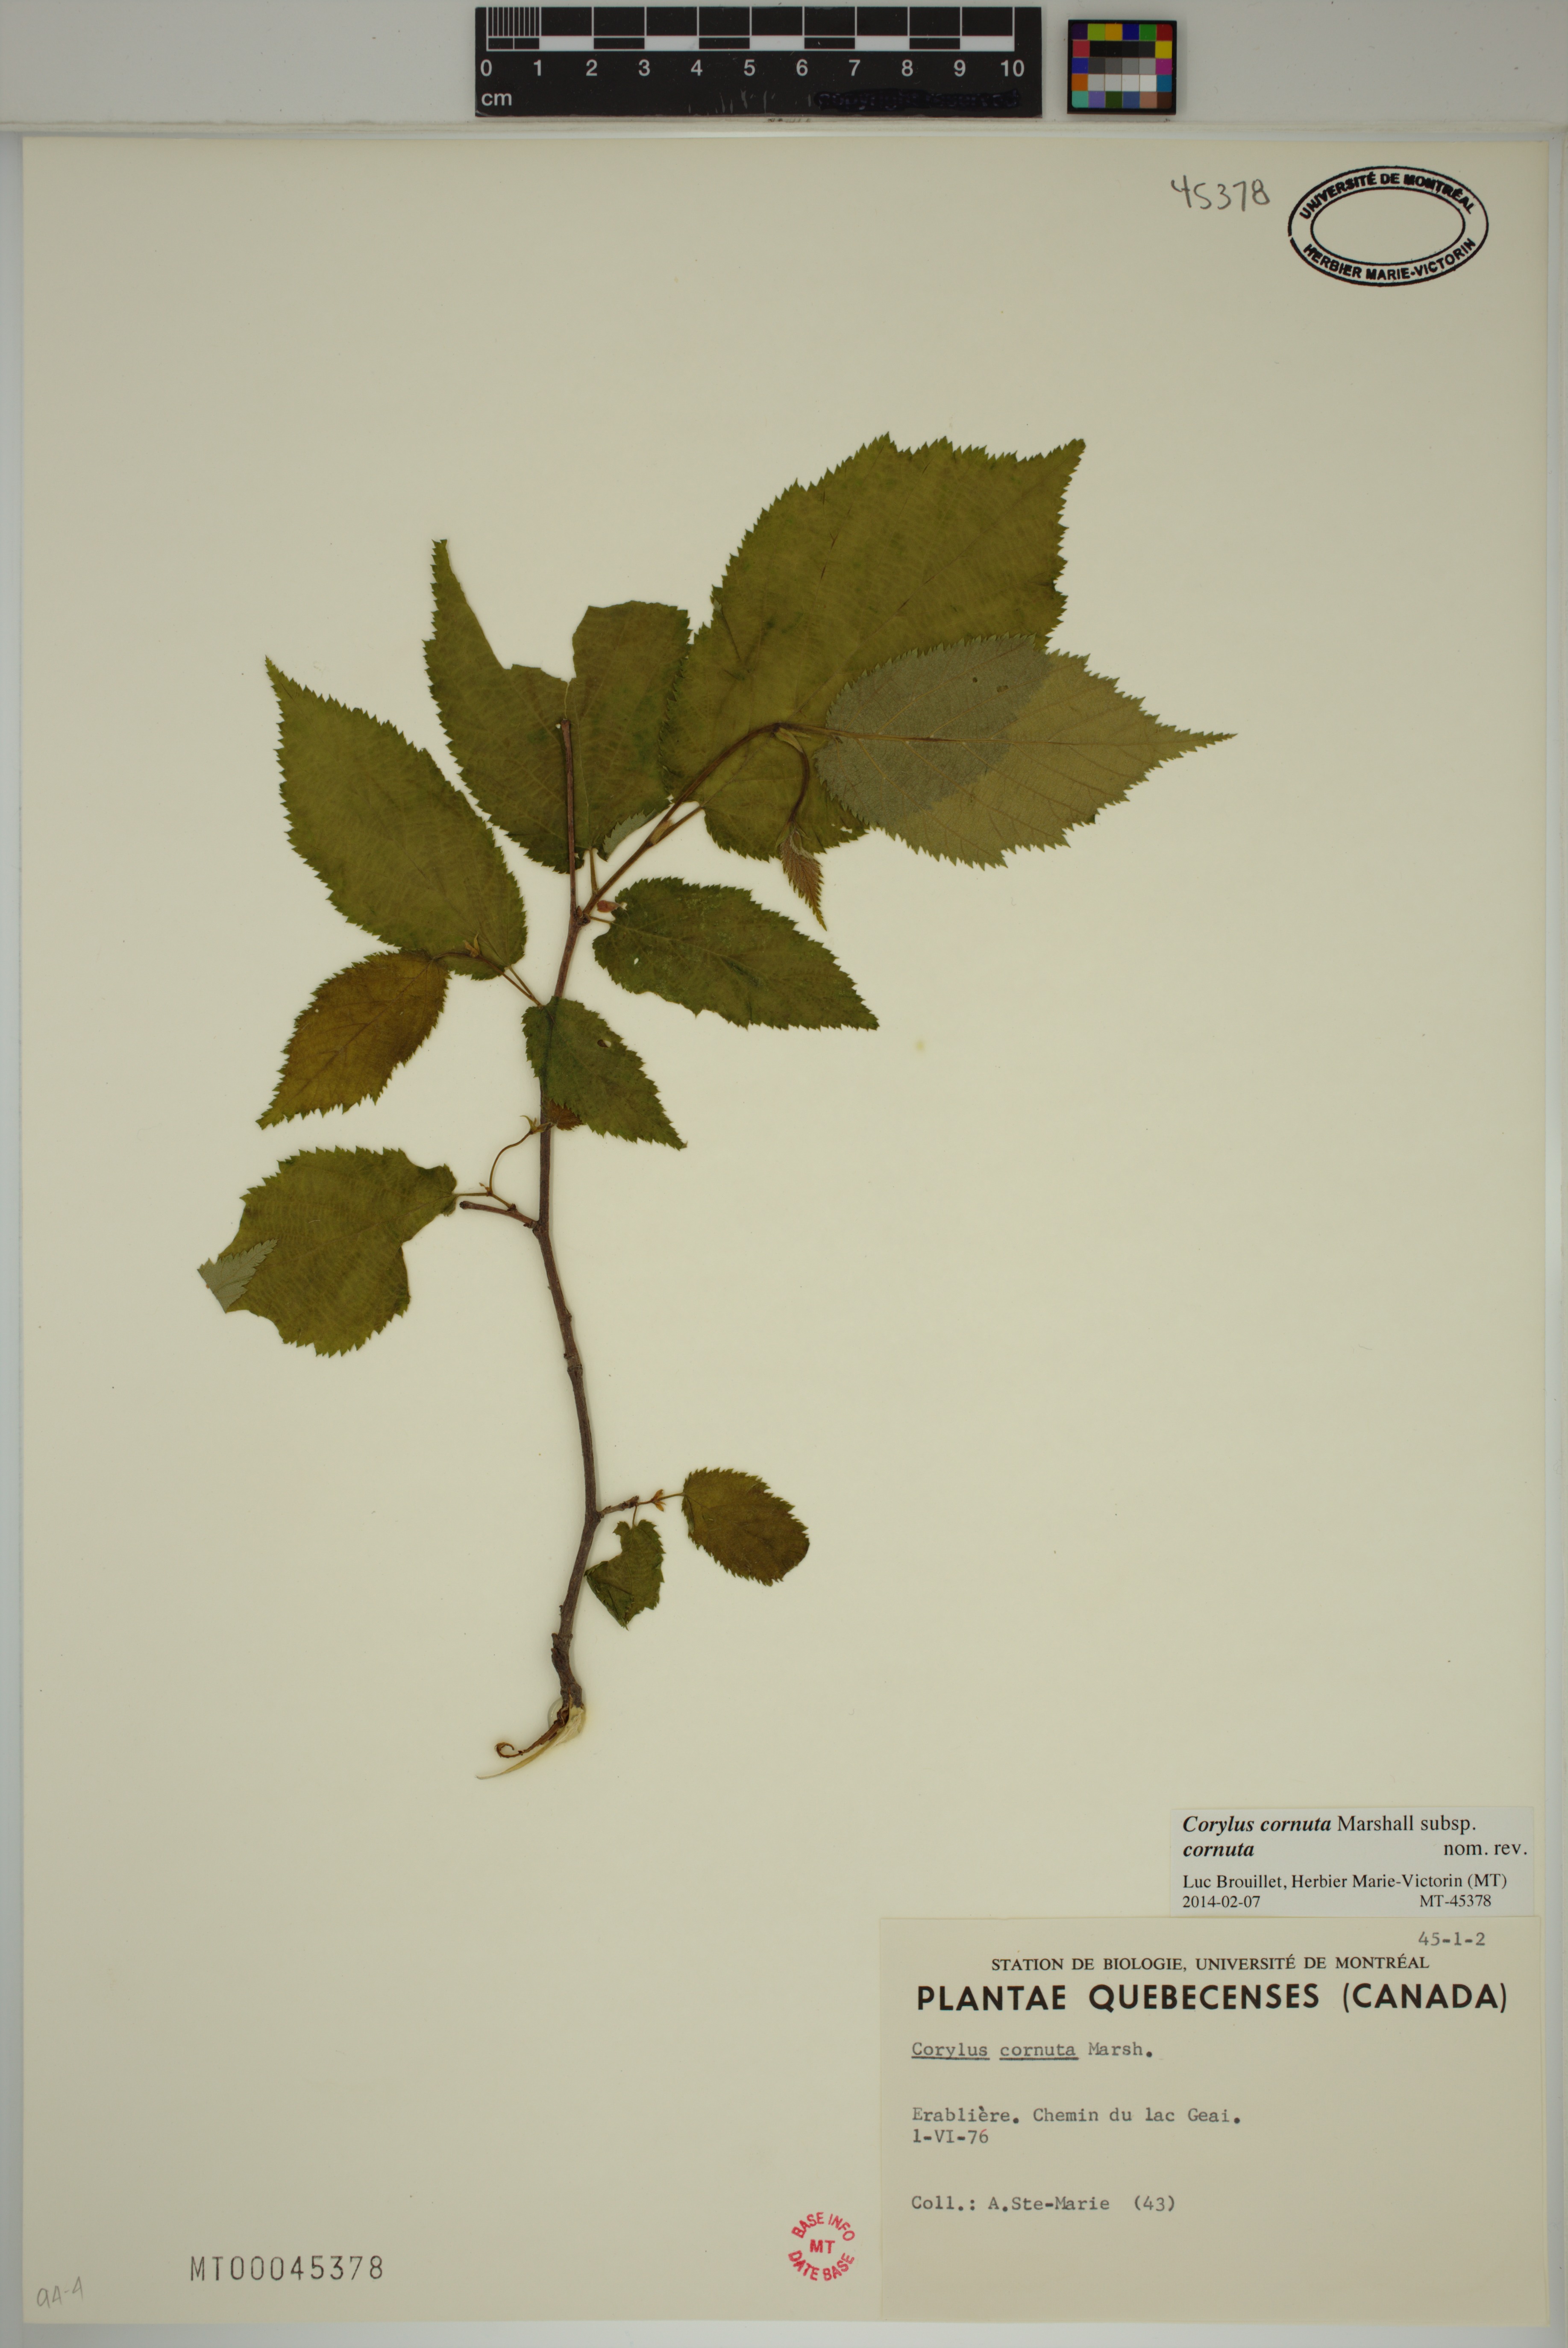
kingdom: Plantae
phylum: Tracheophyta
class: Magnoliopsida
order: Fagales
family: Betulaceae
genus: Corylus
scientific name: Corylus cornuta
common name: Beaked hazel
